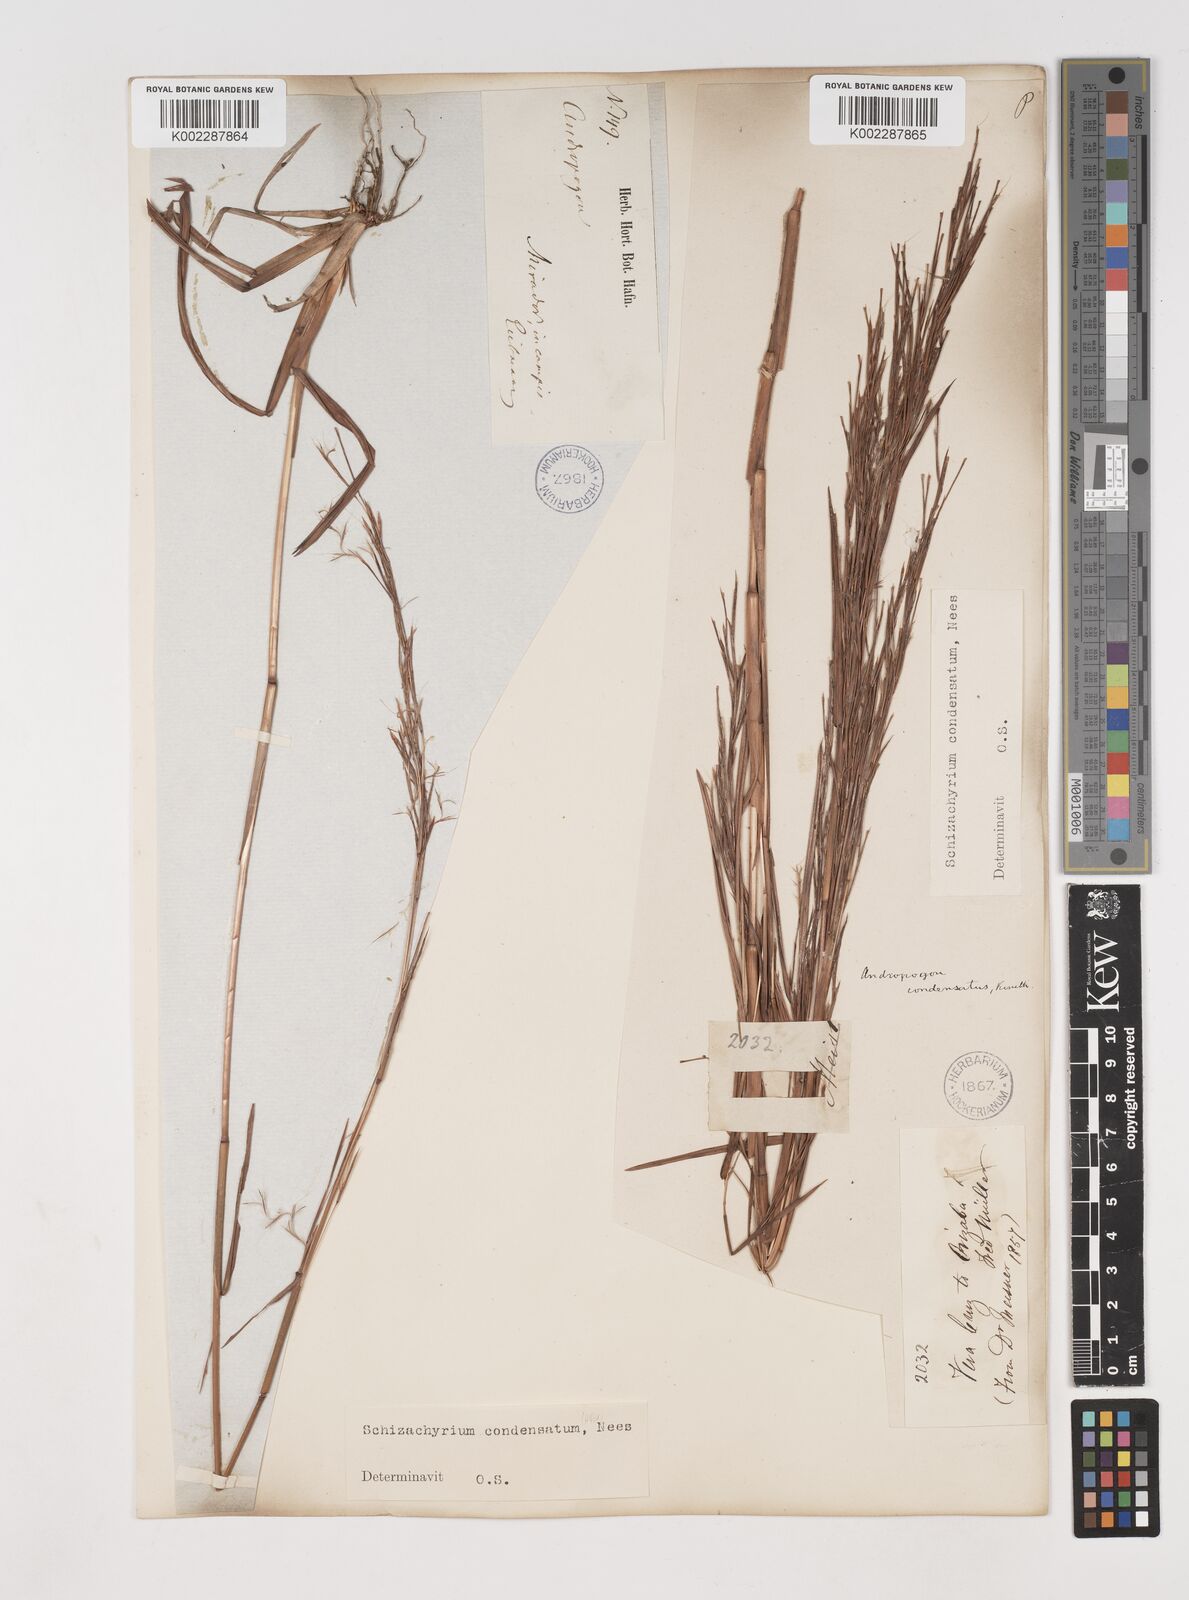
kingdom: Plantae
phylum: Tracheophyta
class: Liliopsida
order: Poales
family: Poaceae
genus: Schizachyrium
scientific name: Schizachyrium condensatum
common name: Bush beardgrass
